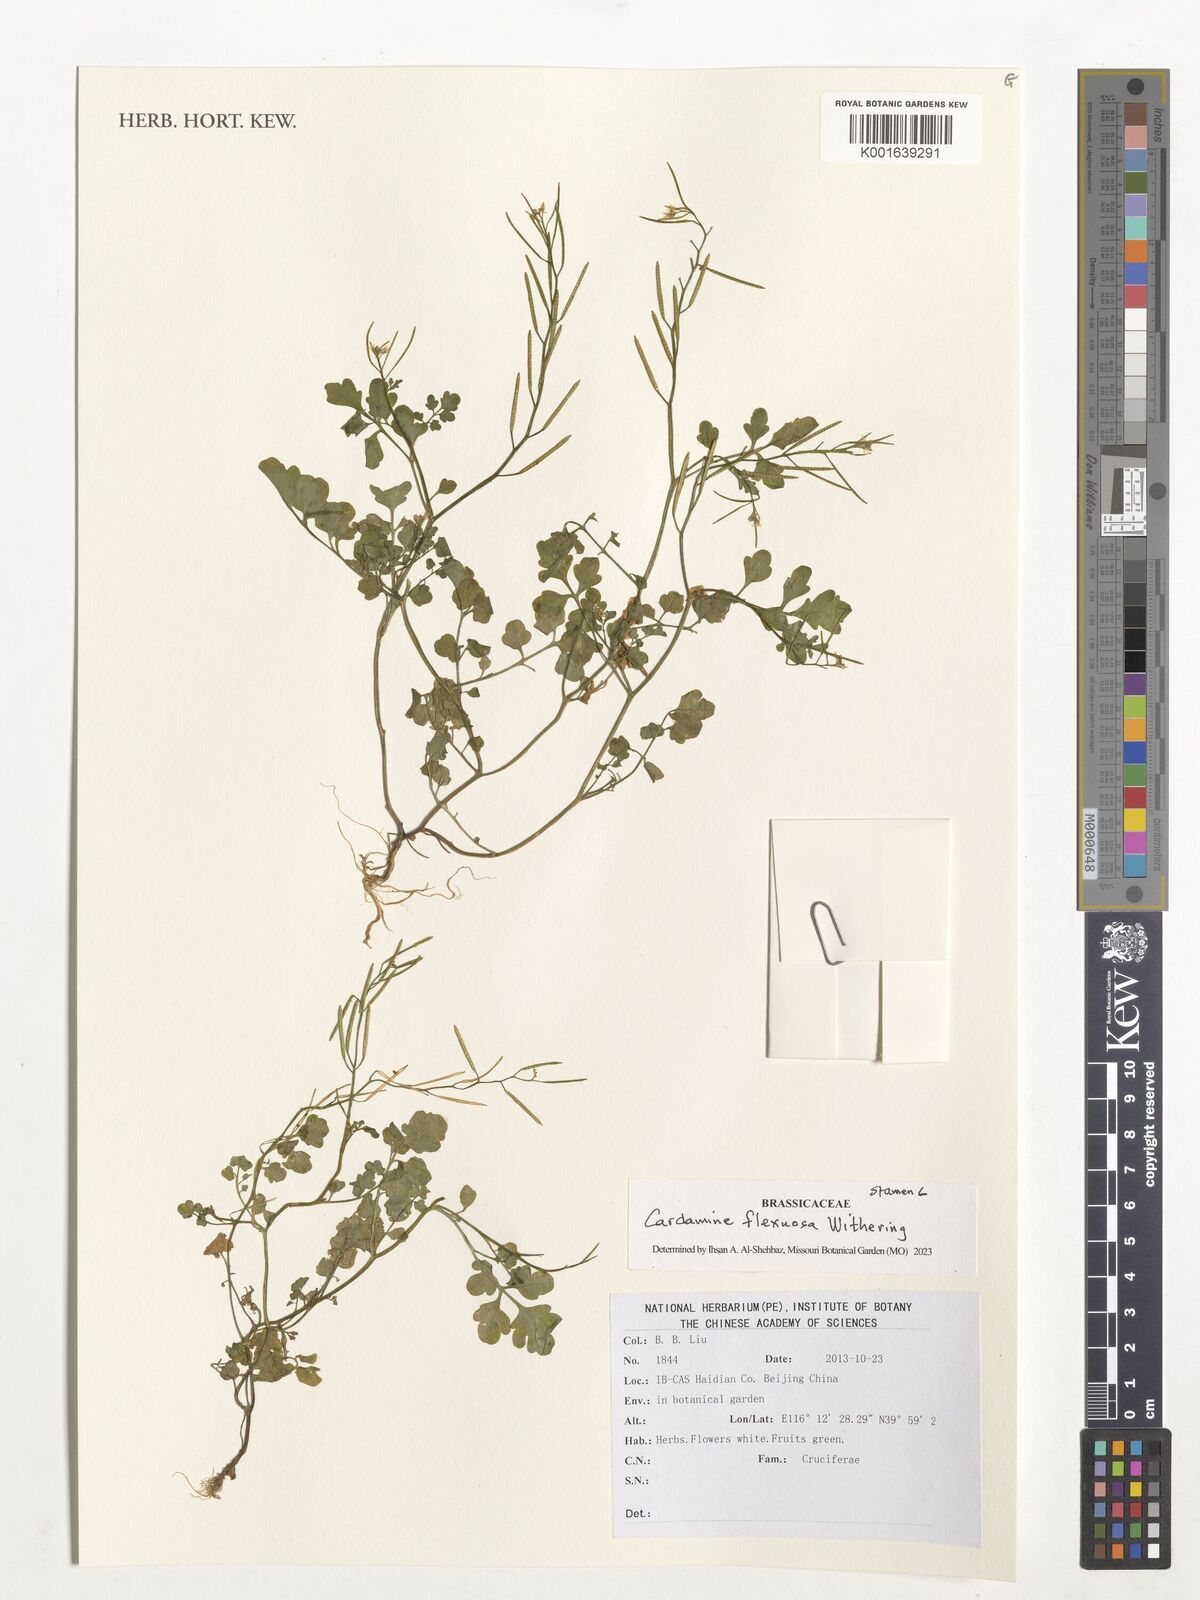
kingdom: Plantae
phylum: Tracheophyta
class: Magnoliopsida
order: Brassicales
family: Brassicaceae
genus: Cardamine
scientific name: Cardamine flexuosa
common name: Woodland bittercress
